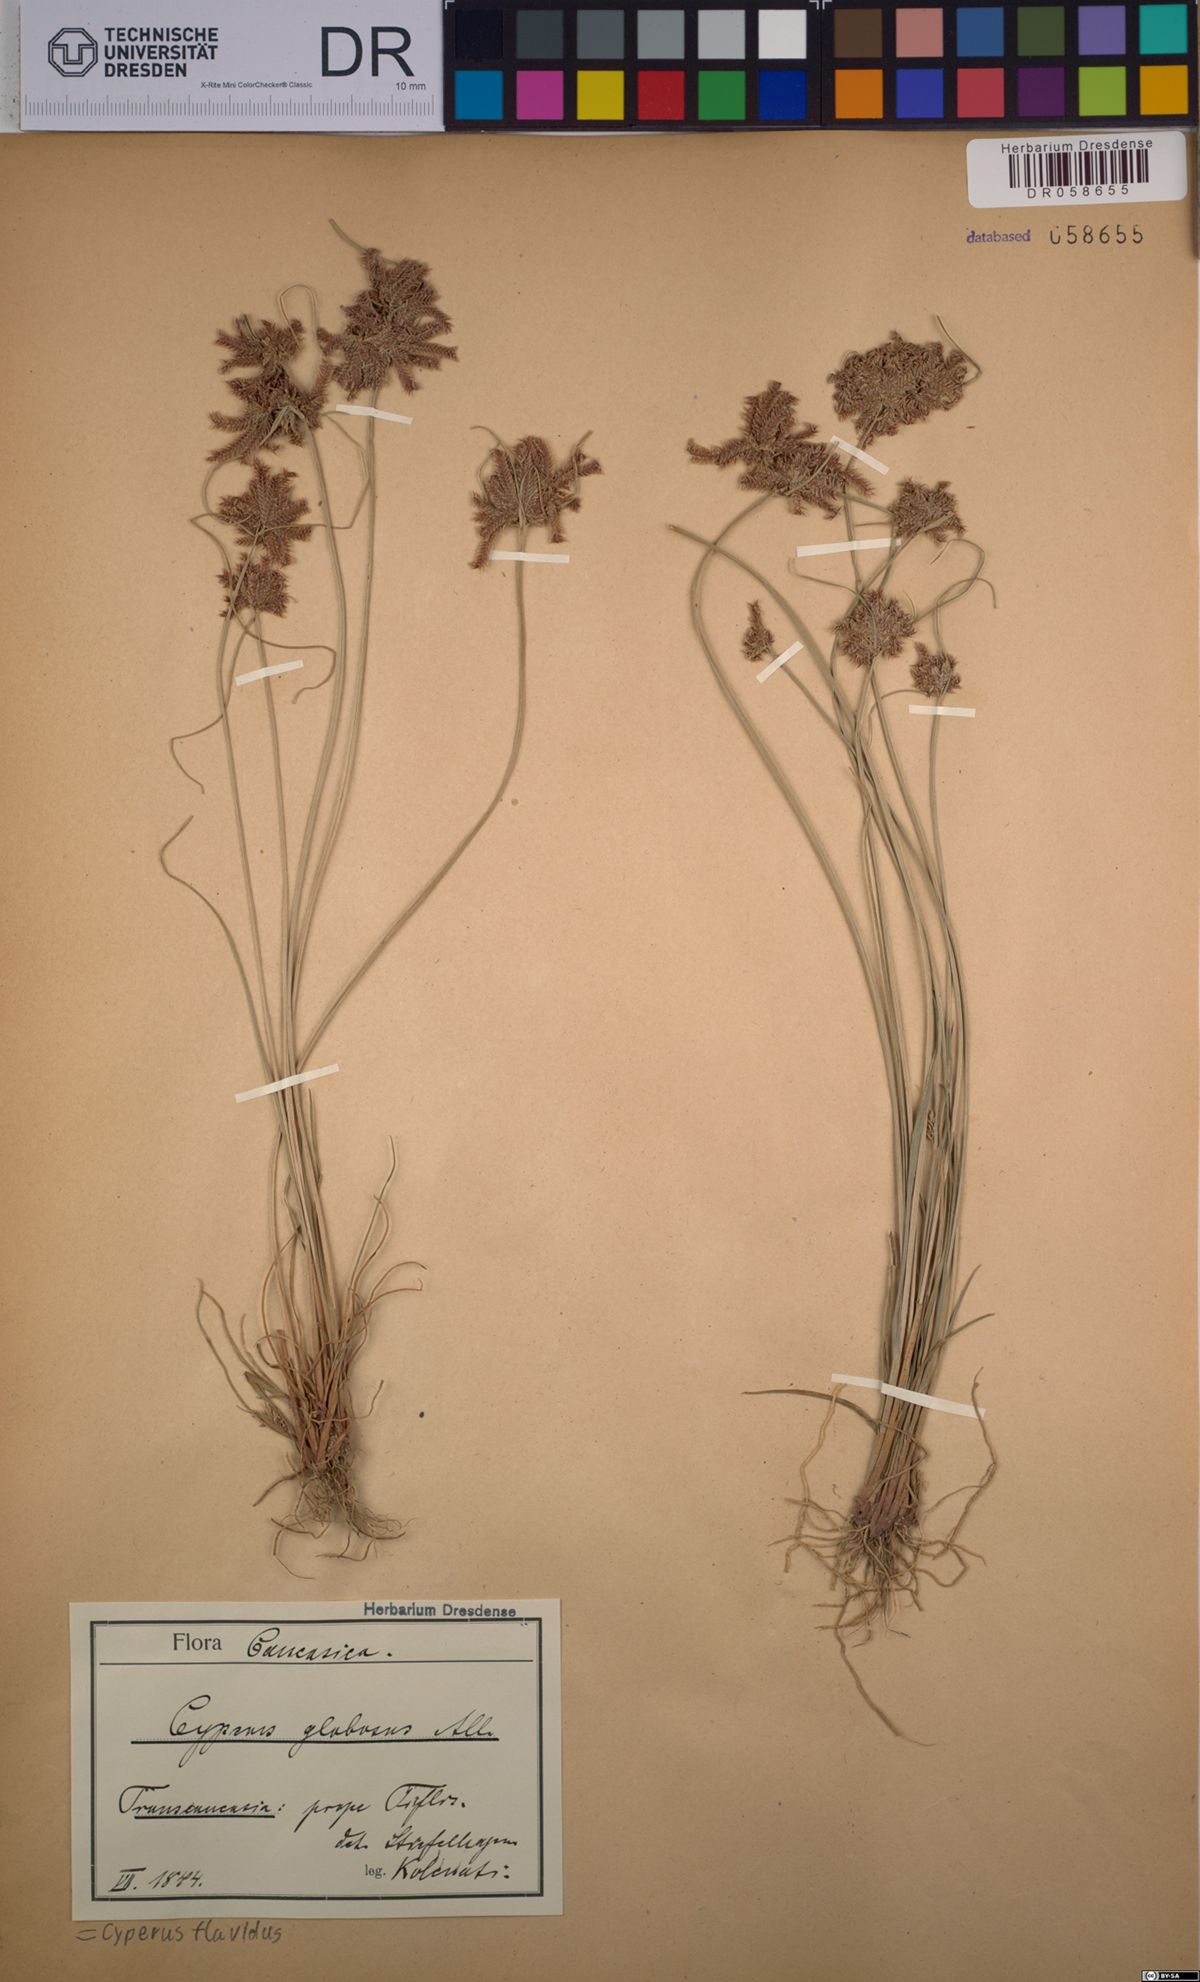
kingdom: Plantae
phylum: Tracheophyta
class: Liliopsida
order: Poales
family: Cyperaceae
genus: Cyperus
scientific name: Cyperus flavidus
